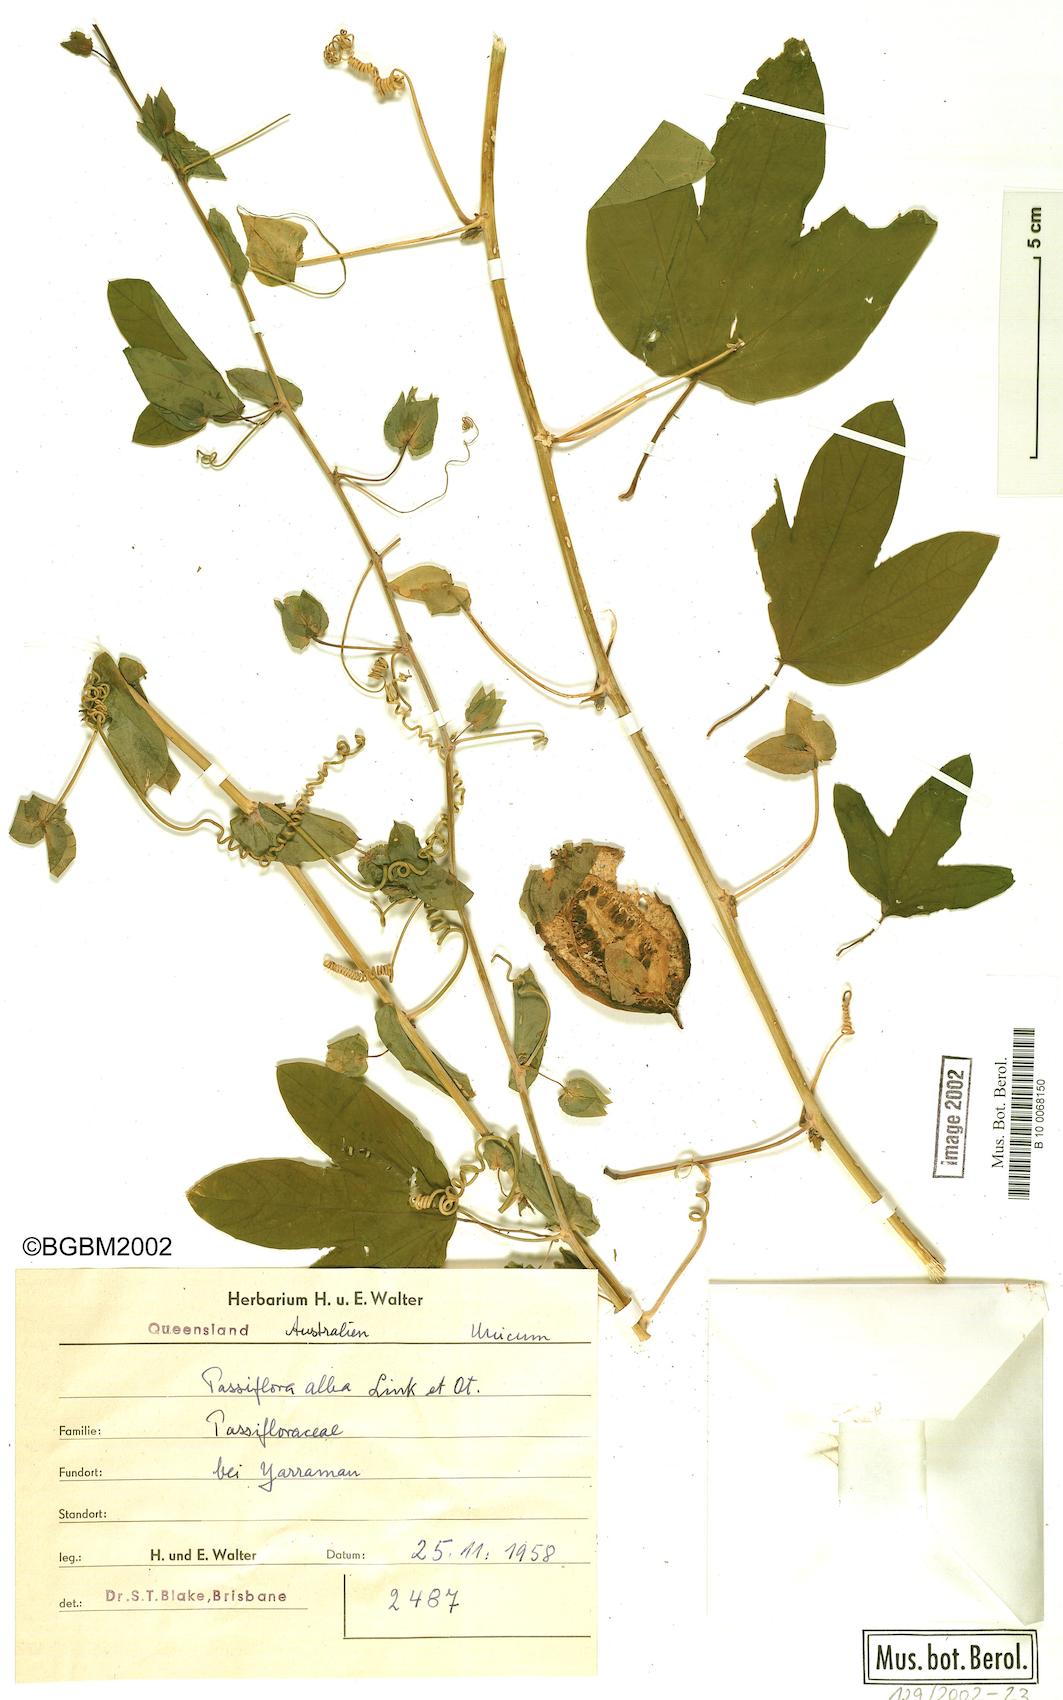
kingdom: Plantae
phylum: Tracheophyta
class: Magnoliopsida
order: Malpighiales
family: Passifloraceae
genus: Passiflora
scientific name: Passiflora subpeltata
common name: White passionflower
